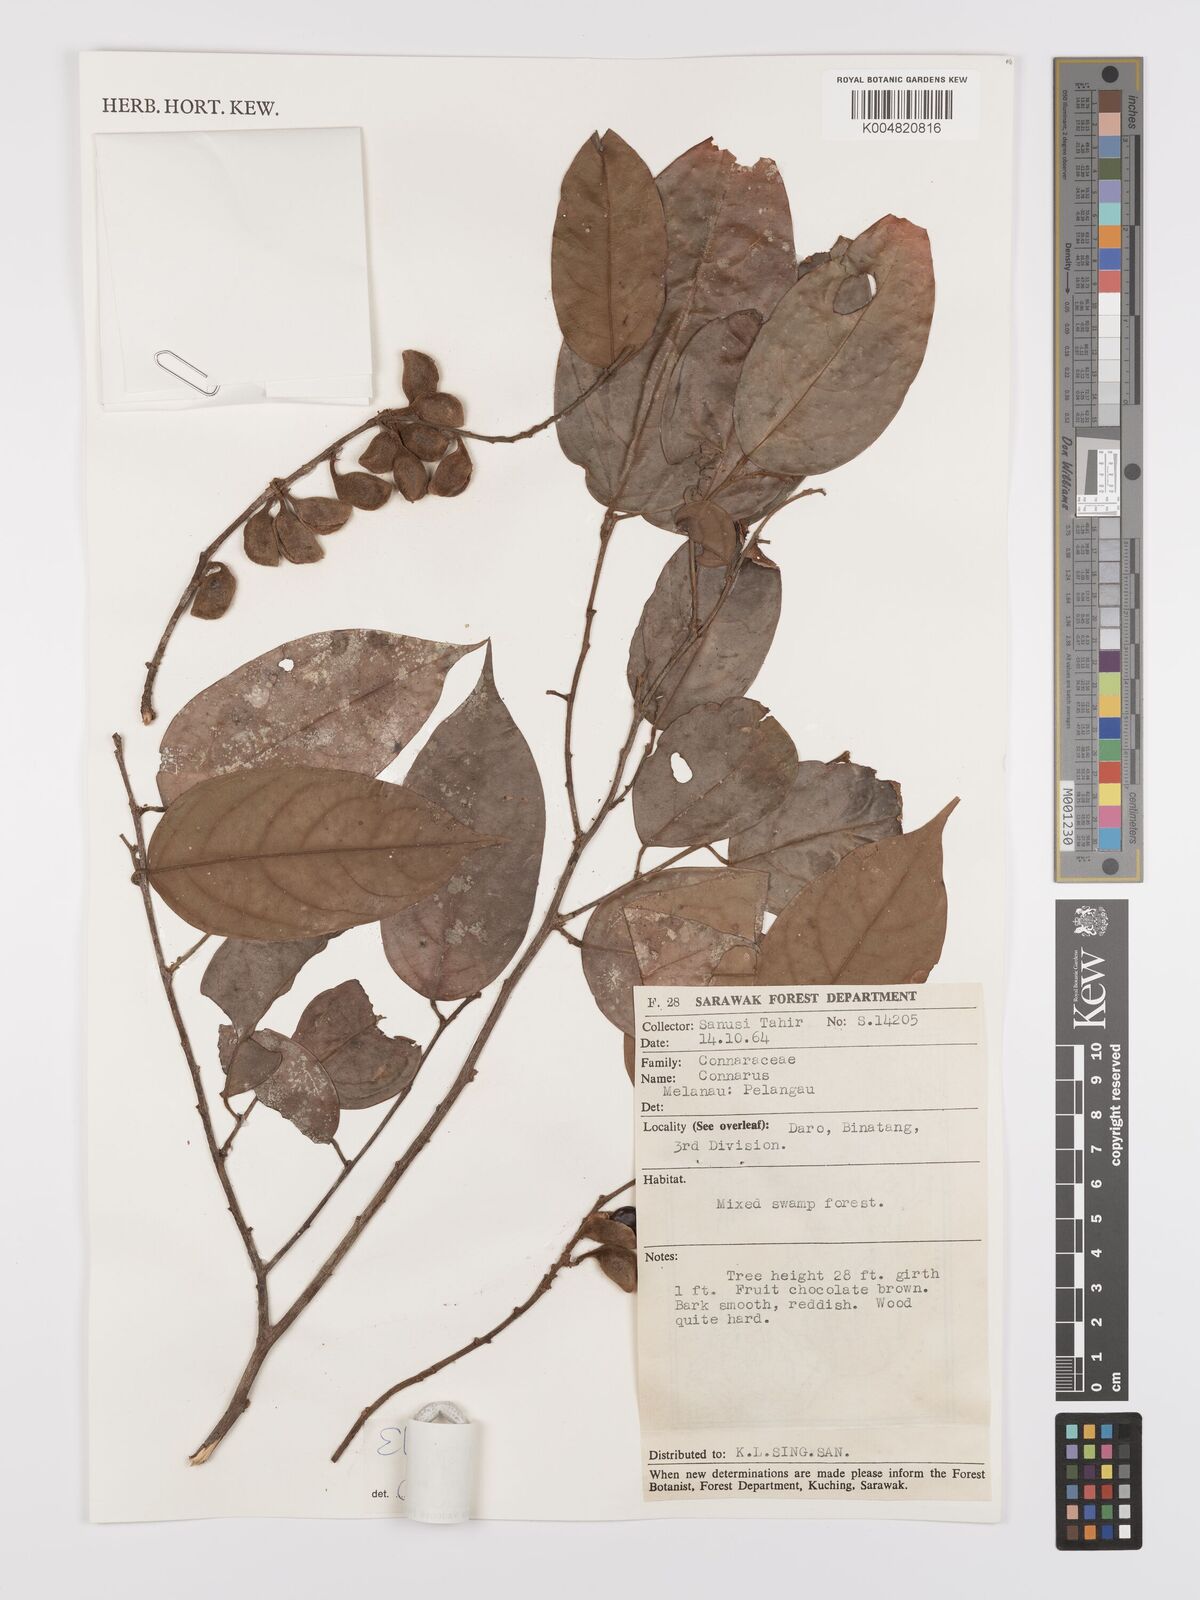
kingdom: Plantae
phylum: Tracheophyta
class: Magnoliopsida
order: Oxalidales
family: Connaraceae
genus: Ellipanthus
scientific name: Ellipanthus
